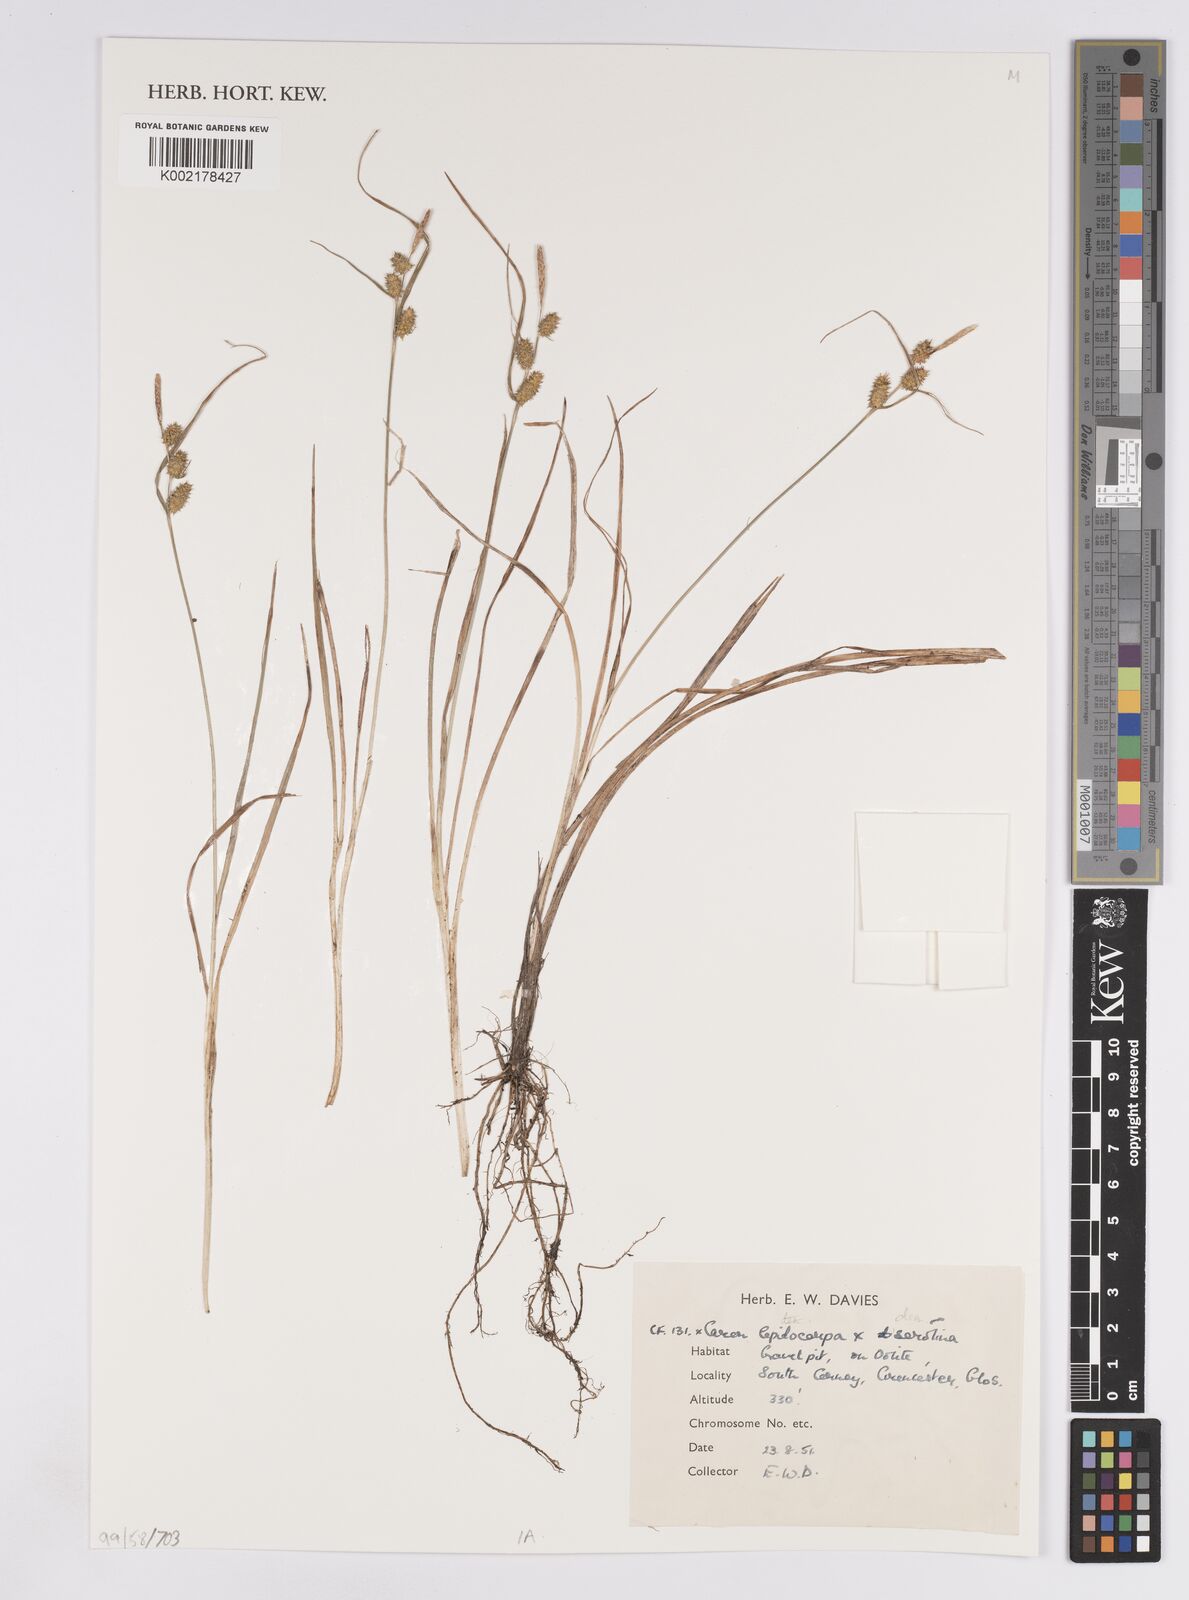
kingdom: Plantae
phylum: Tracheophyta
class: Liliopsida
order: Poales
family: Cyperaceae
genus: Carex
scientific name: Carex lepidocarpa
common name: Long-stalked yellow-sedge
